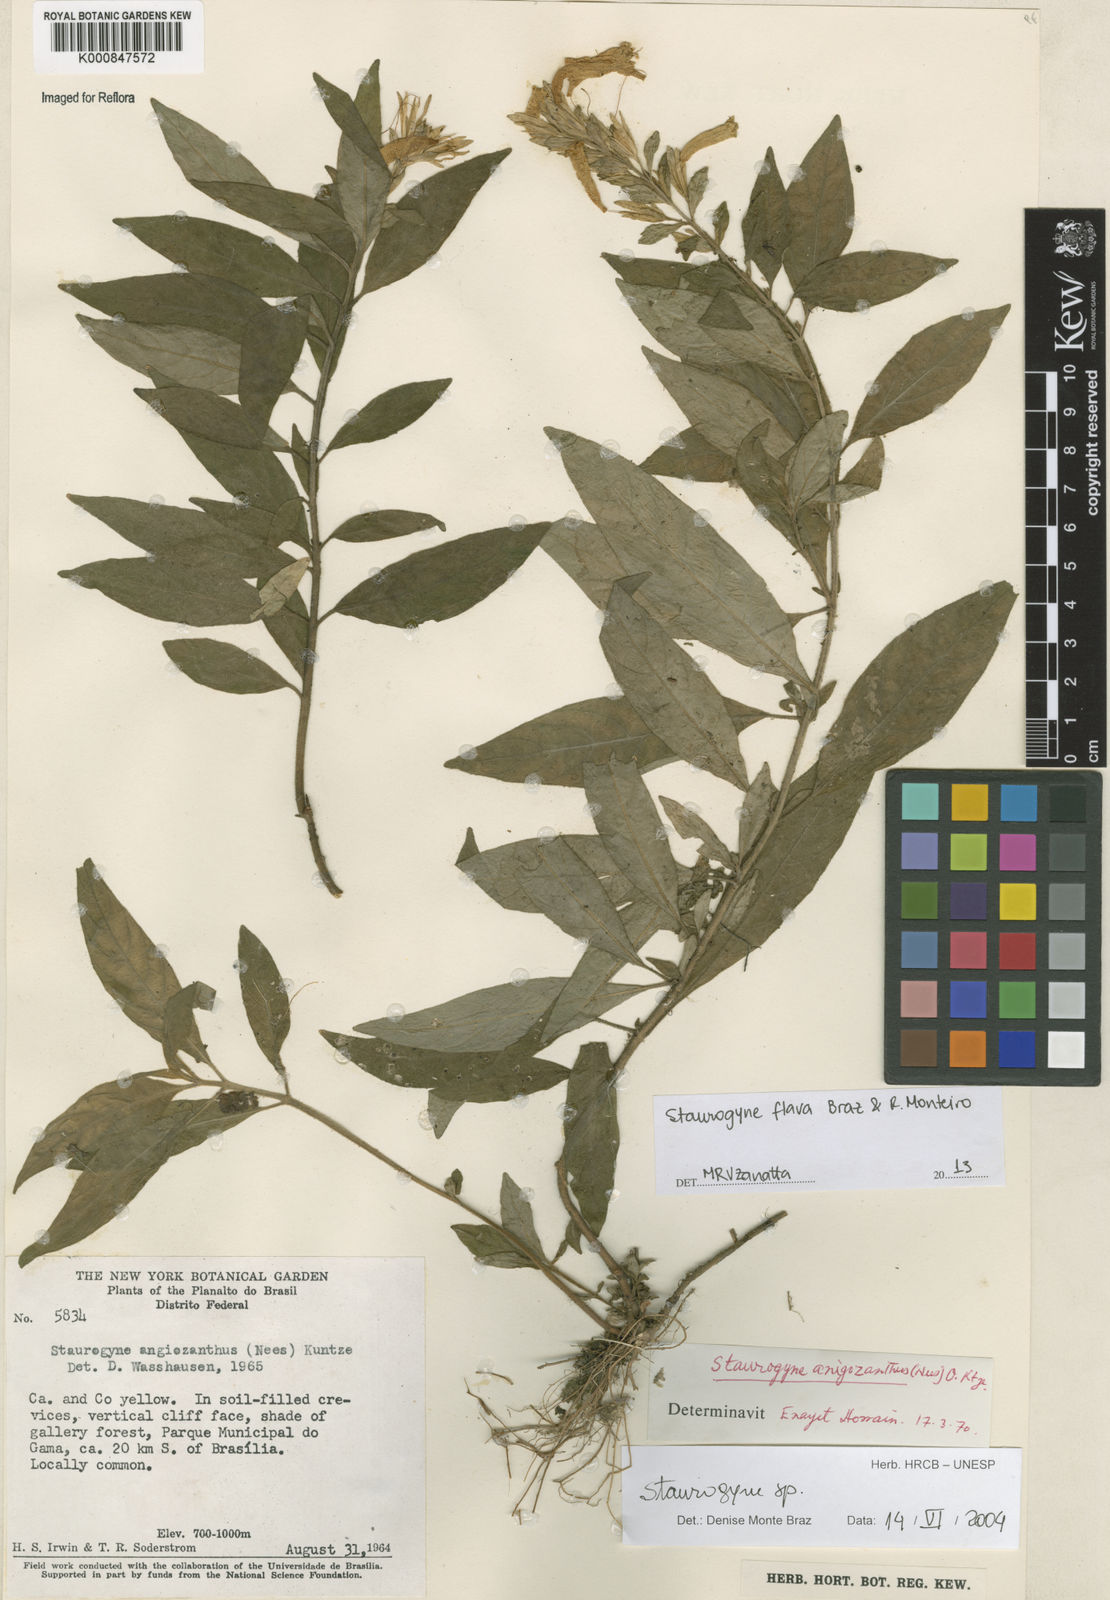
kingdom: Plantae
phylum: Tracheophyta
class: Magnoliopsida
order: Lamiales
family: Acanthaceae
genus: Staurogyne
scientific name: Staurogyne flava
